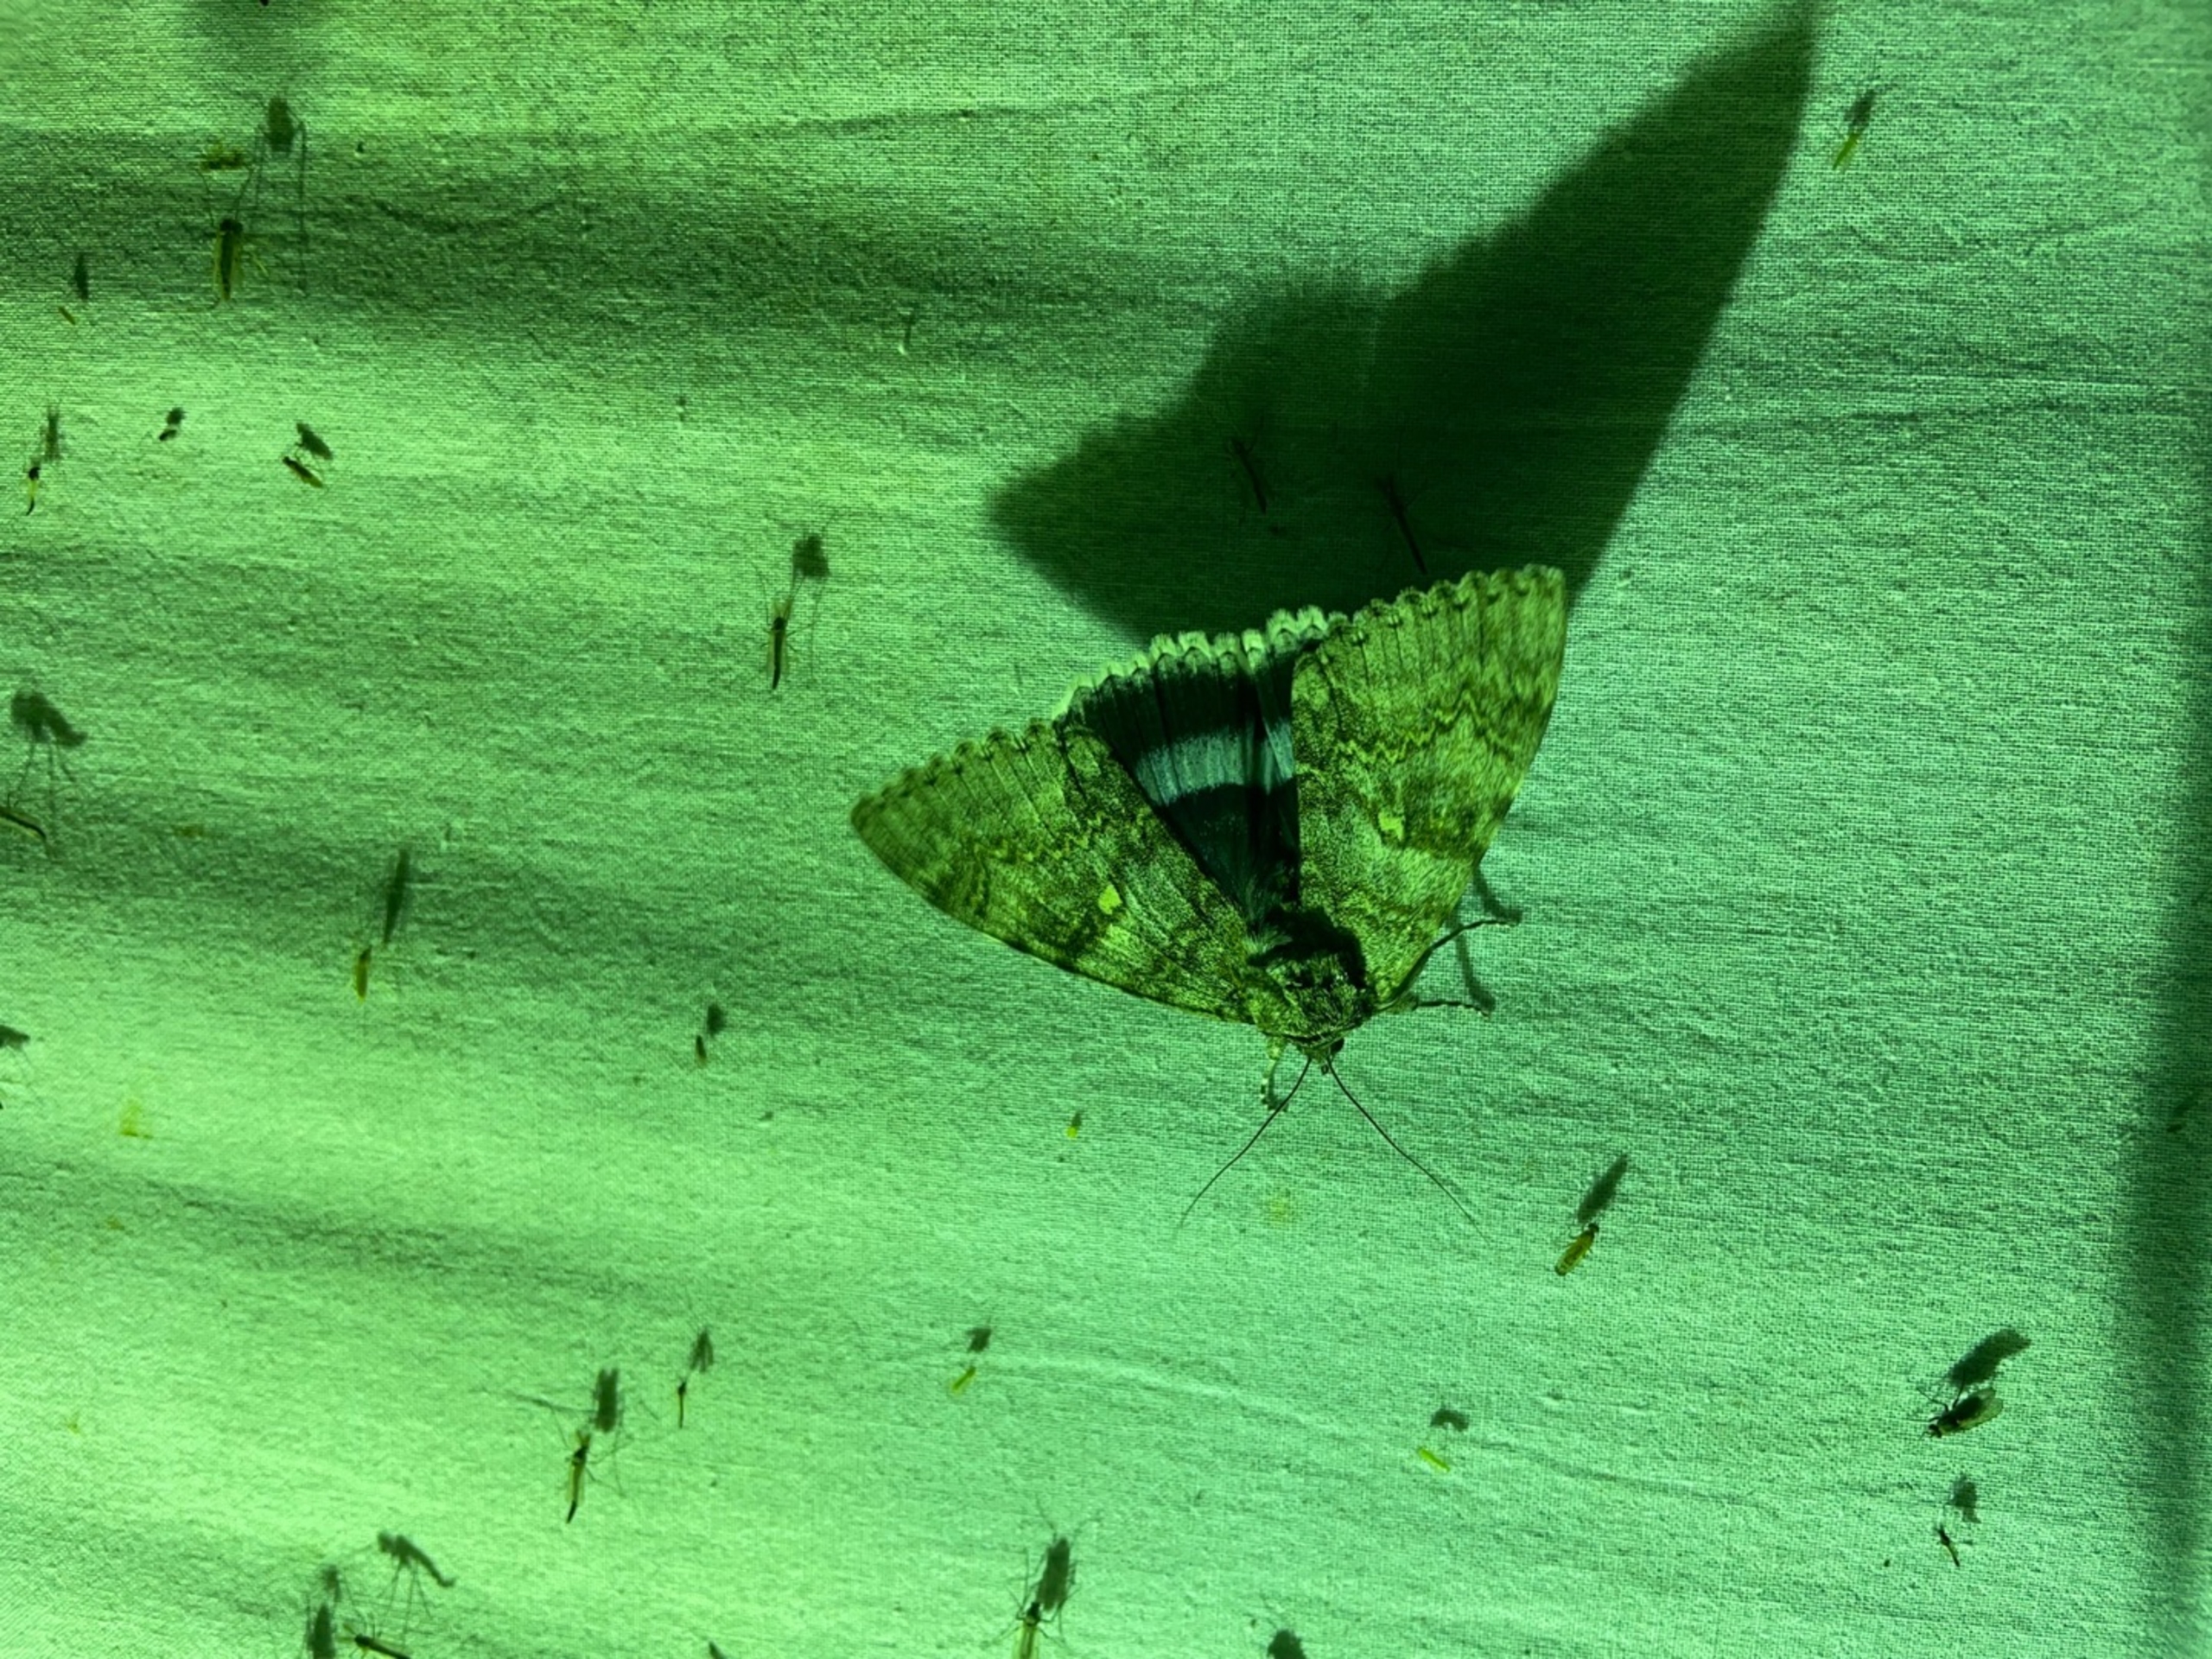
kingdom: Animalia
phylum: Arthropoda
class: Insecta
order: Lepidoptera
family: Erebidae
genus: Catocala
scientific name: Catocala fraxini
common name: Blåt ordensbånd
